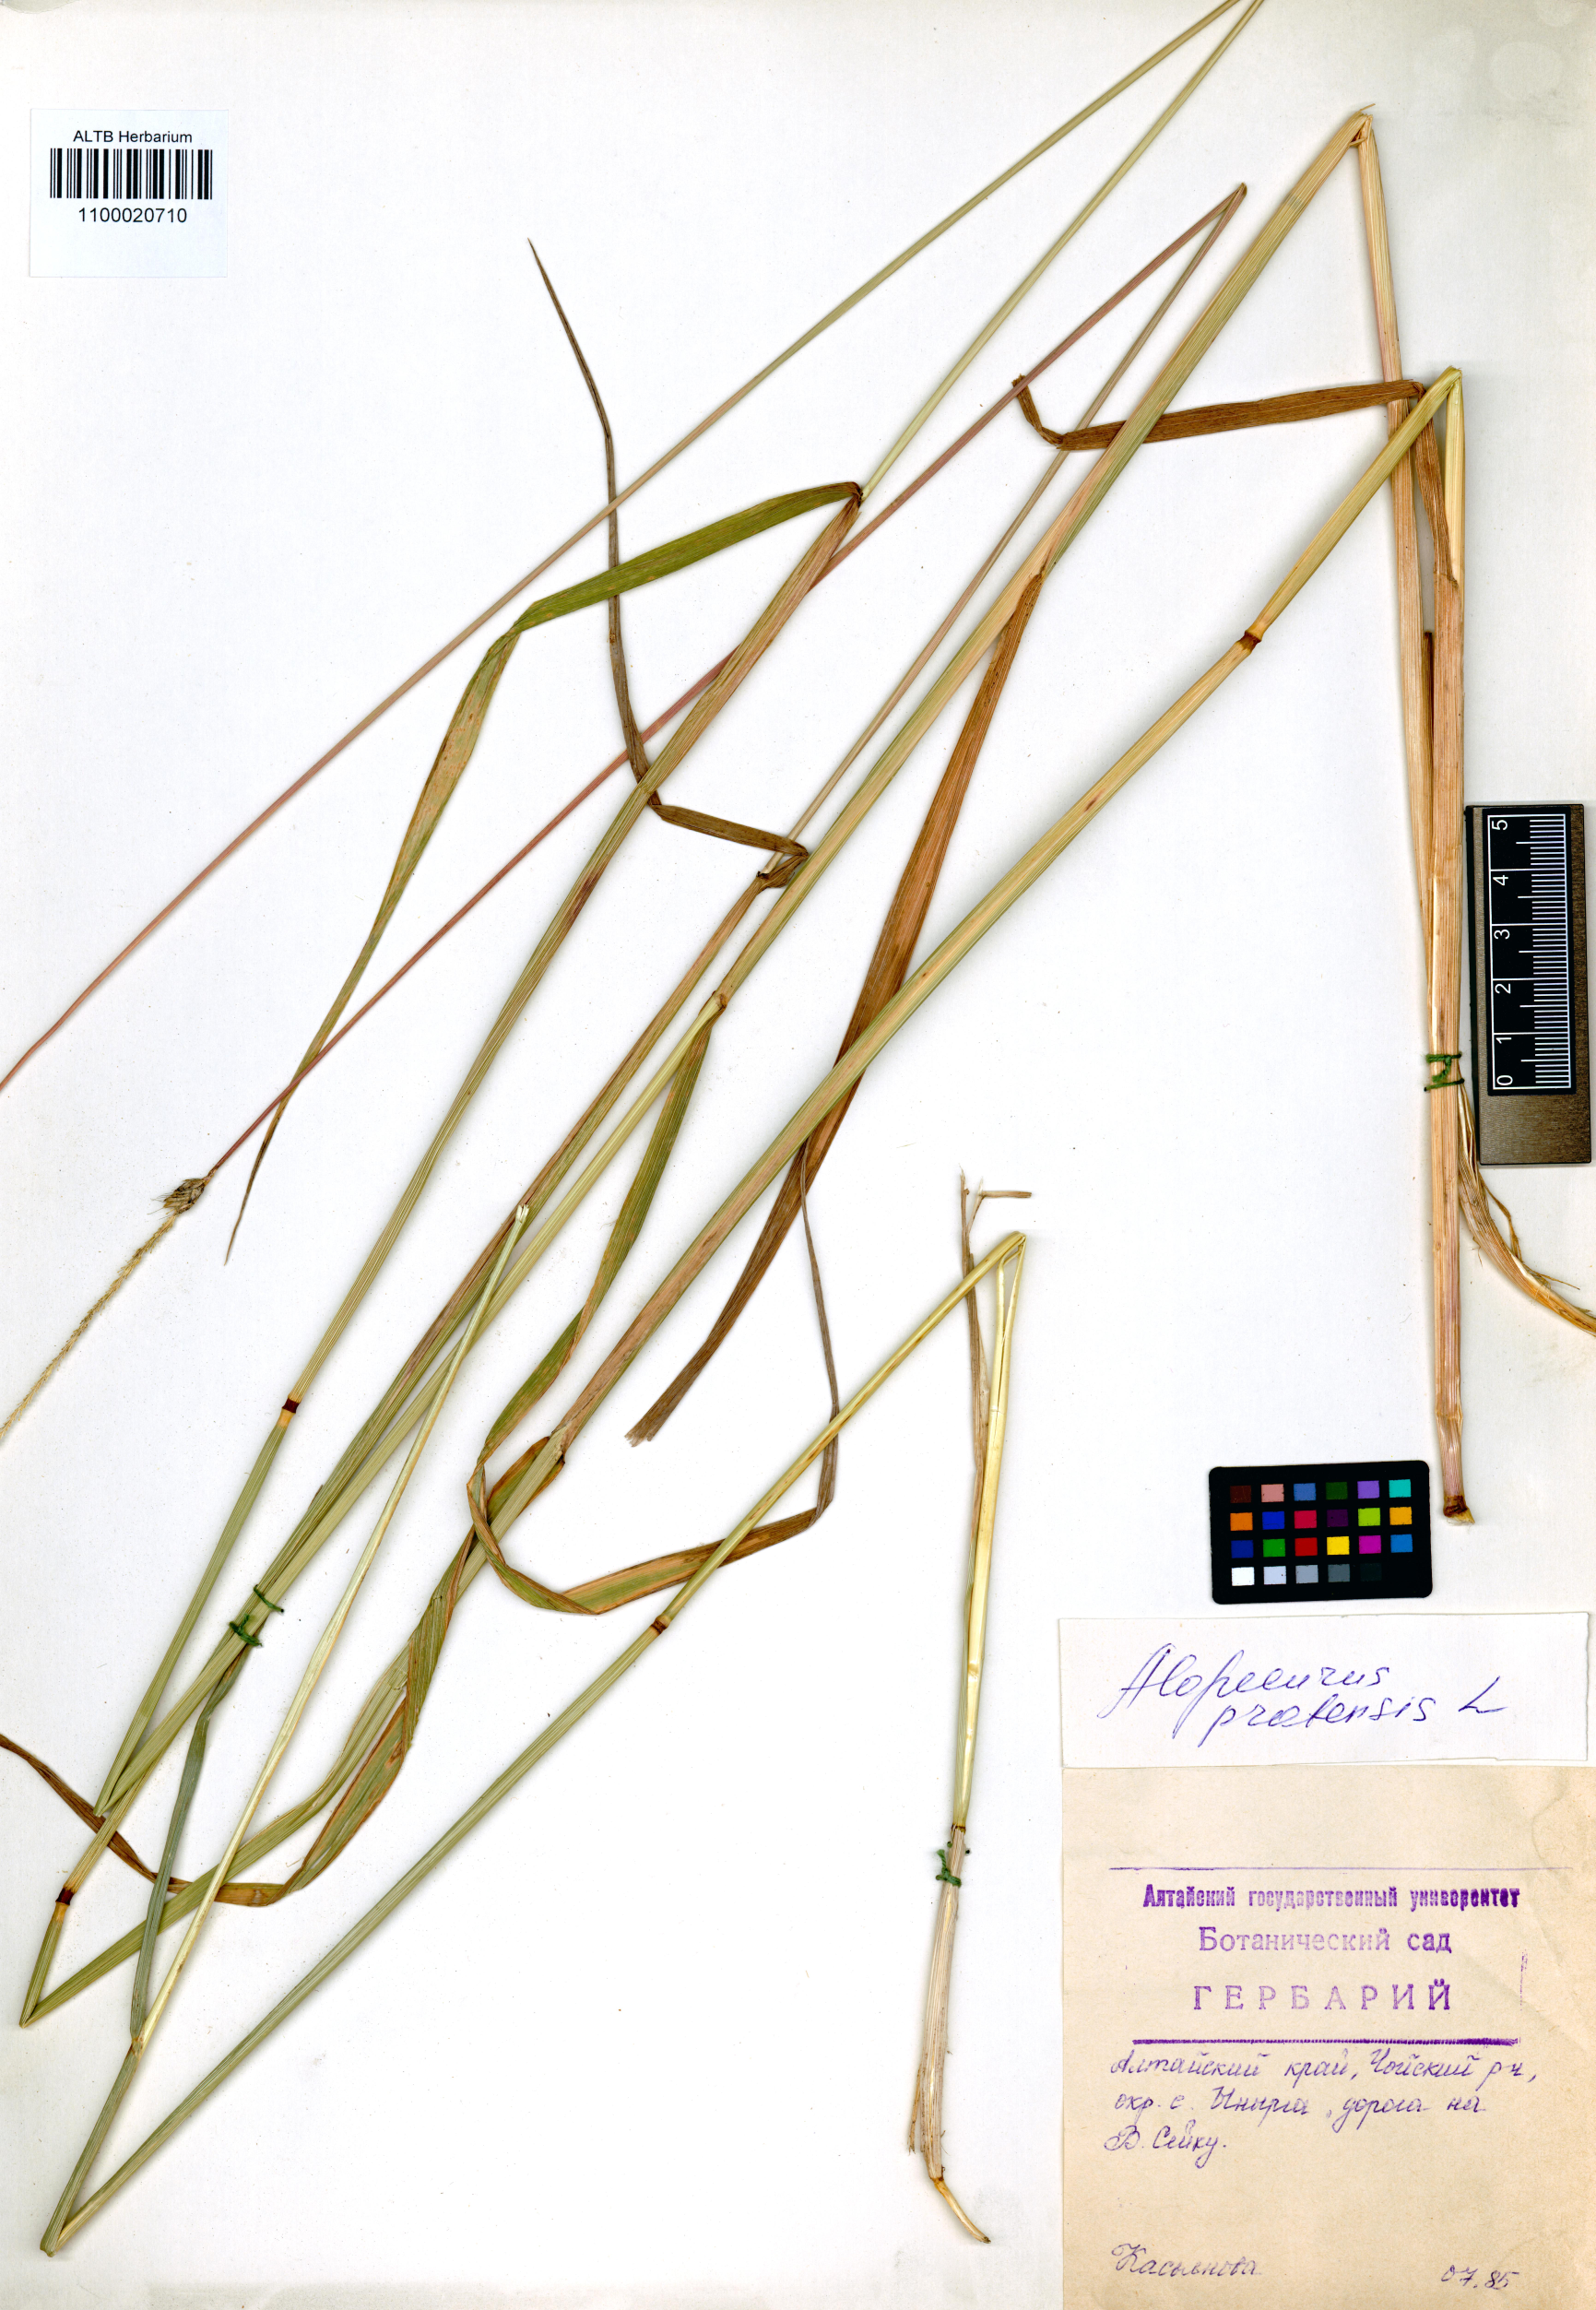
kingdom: Plantae
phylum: Tracheophyta
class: Liliopsida
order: Poales
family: Poaceae
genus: Alopecurus
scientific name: Alopecurus pratensis
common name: Meadow foxtail
